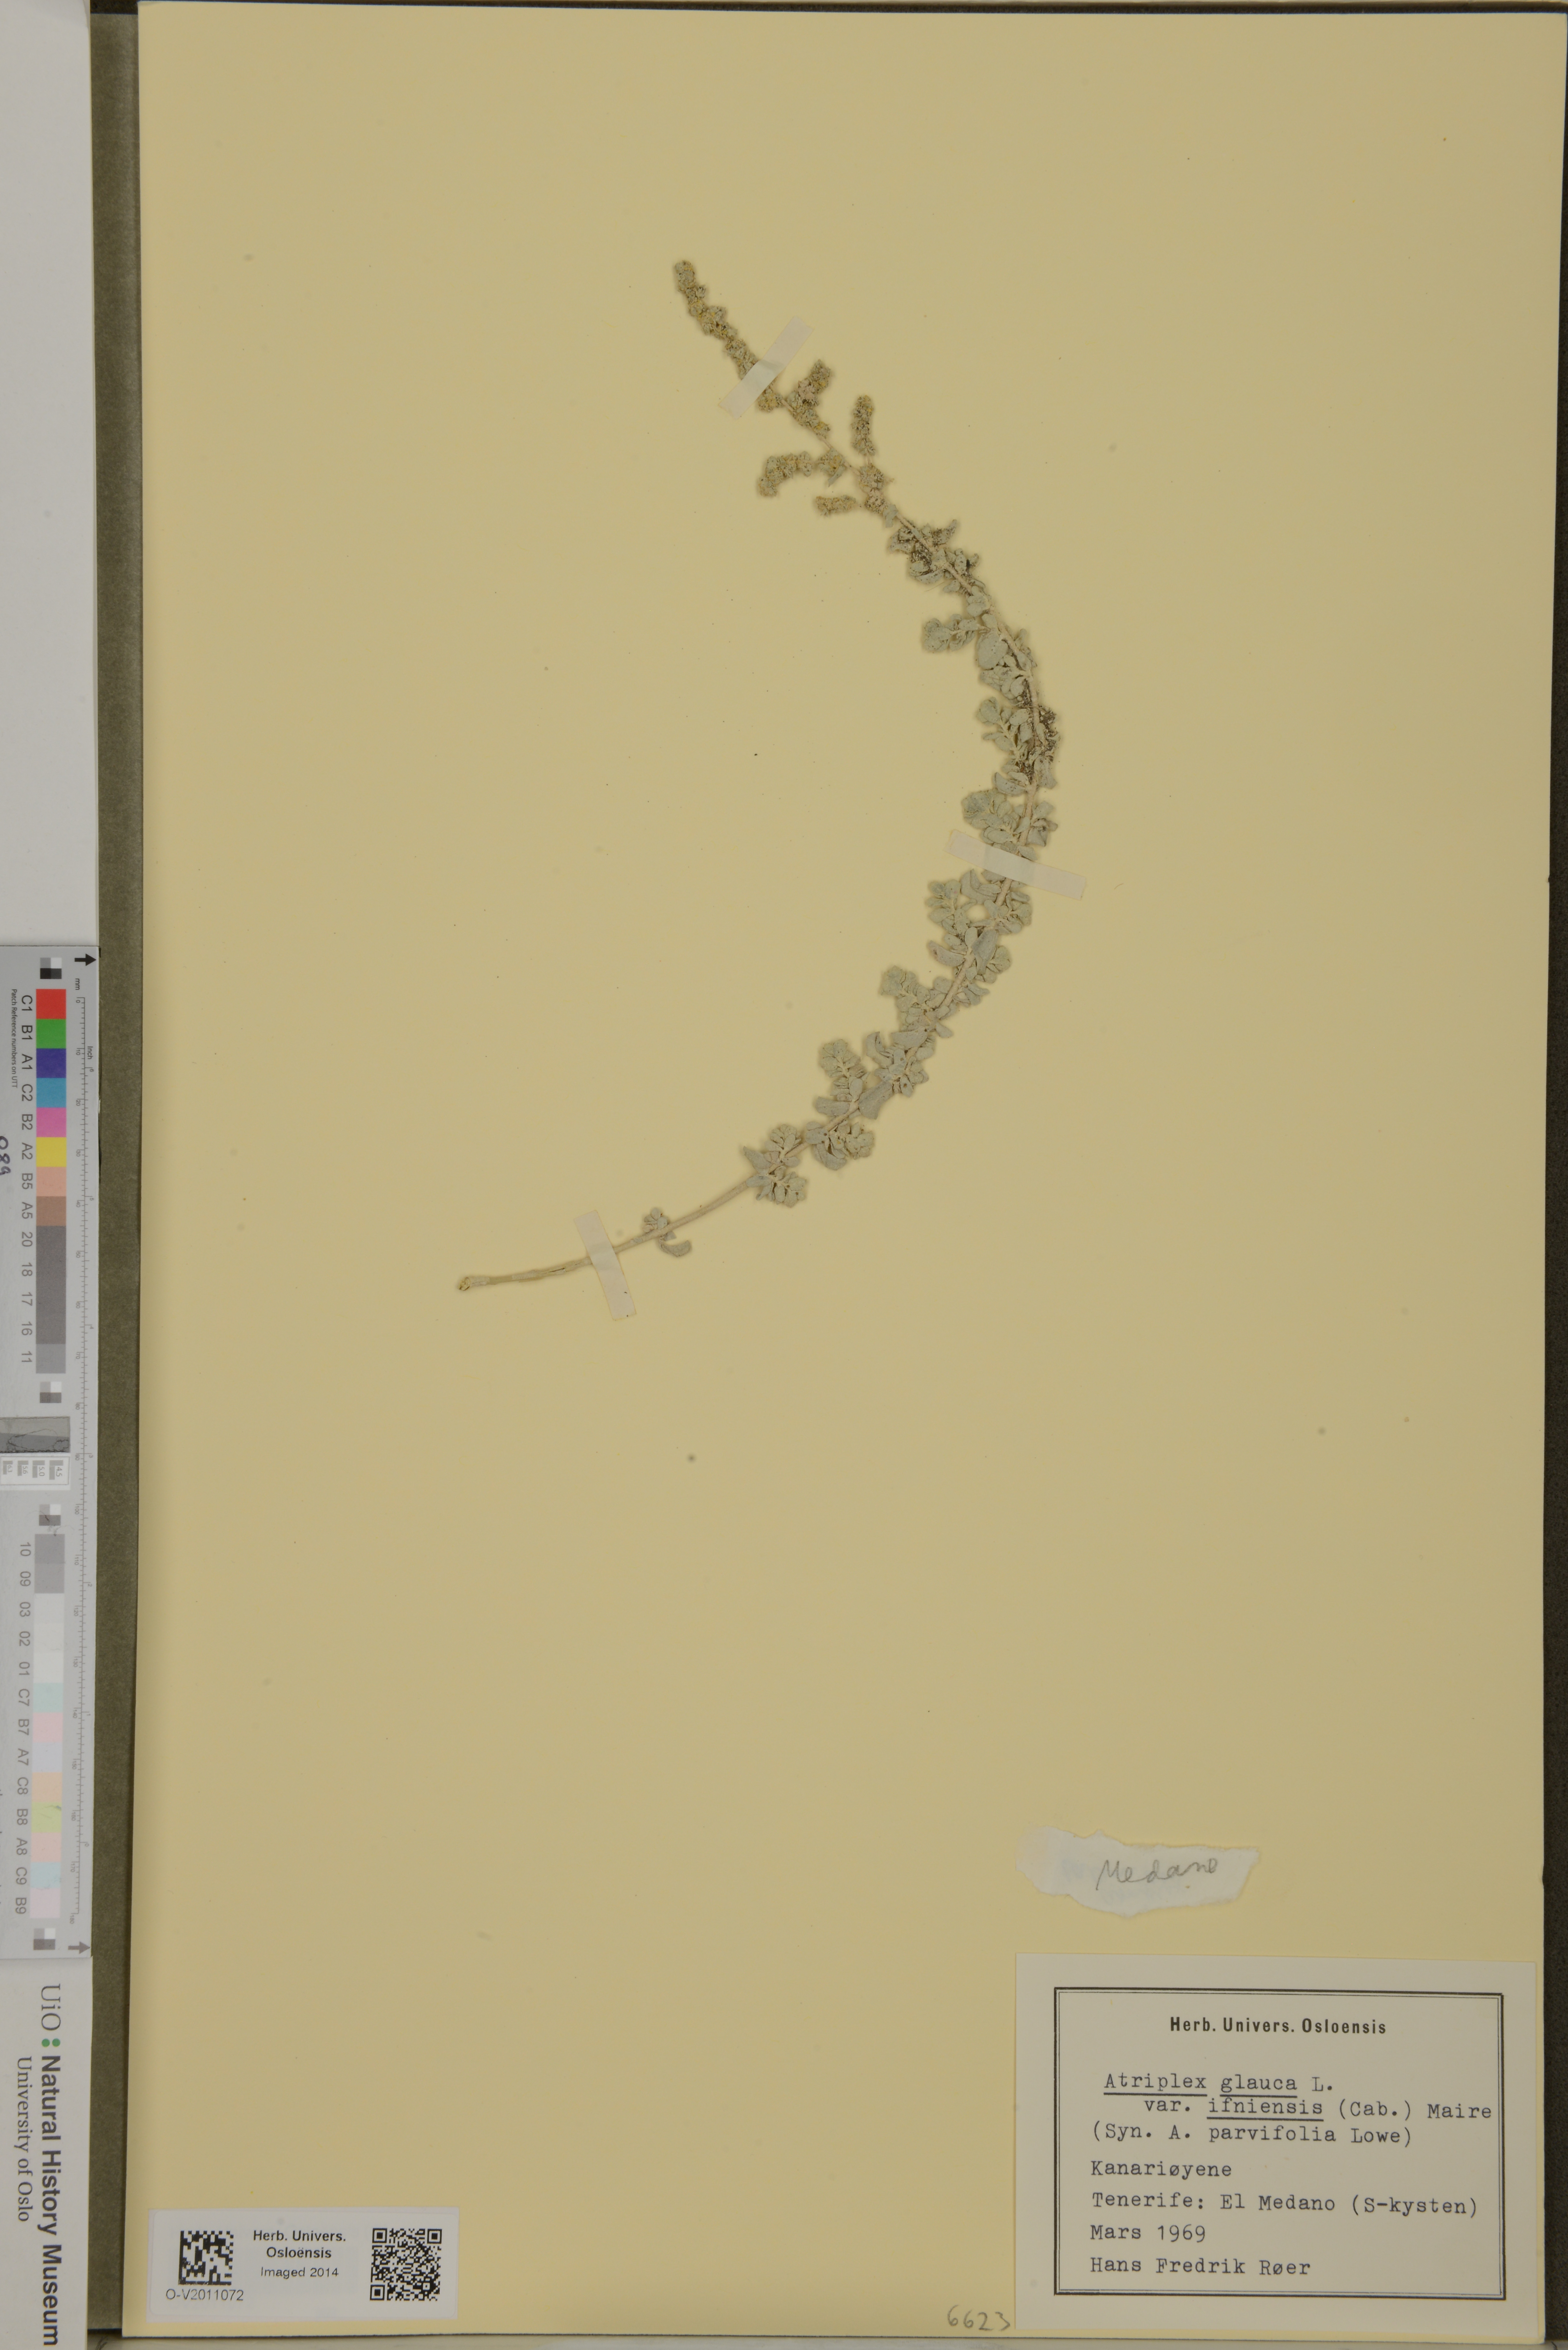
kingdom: Plantae
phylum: Tracheophyta
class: Magnoliopsida
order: Caryophyllales
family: Amaranthaceae
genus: Atriplex
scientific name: Atriplex glauca
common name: Waxy saltbush
